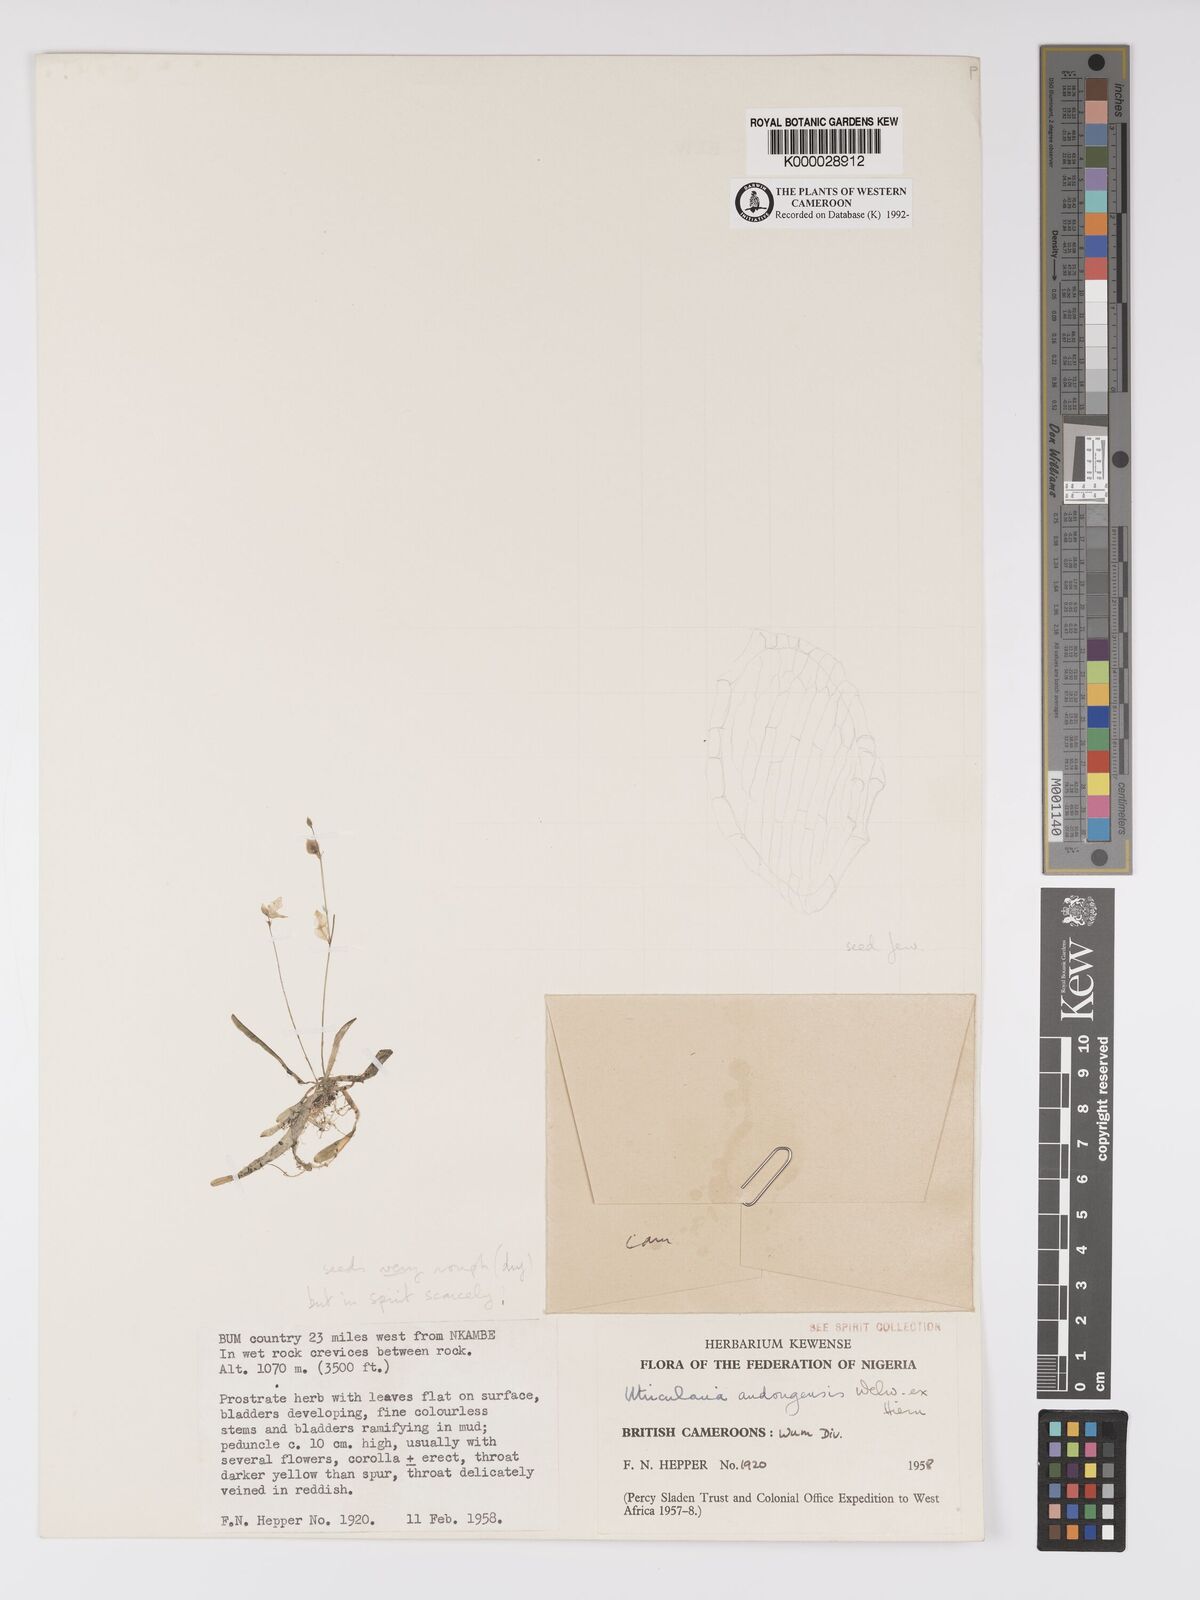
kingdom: Plantae
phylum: Tracheophyta
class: Magnoliopsida
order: Lamiales
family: Lentibulariaceae
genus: Utricularia
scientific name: Utricularia andongensis
